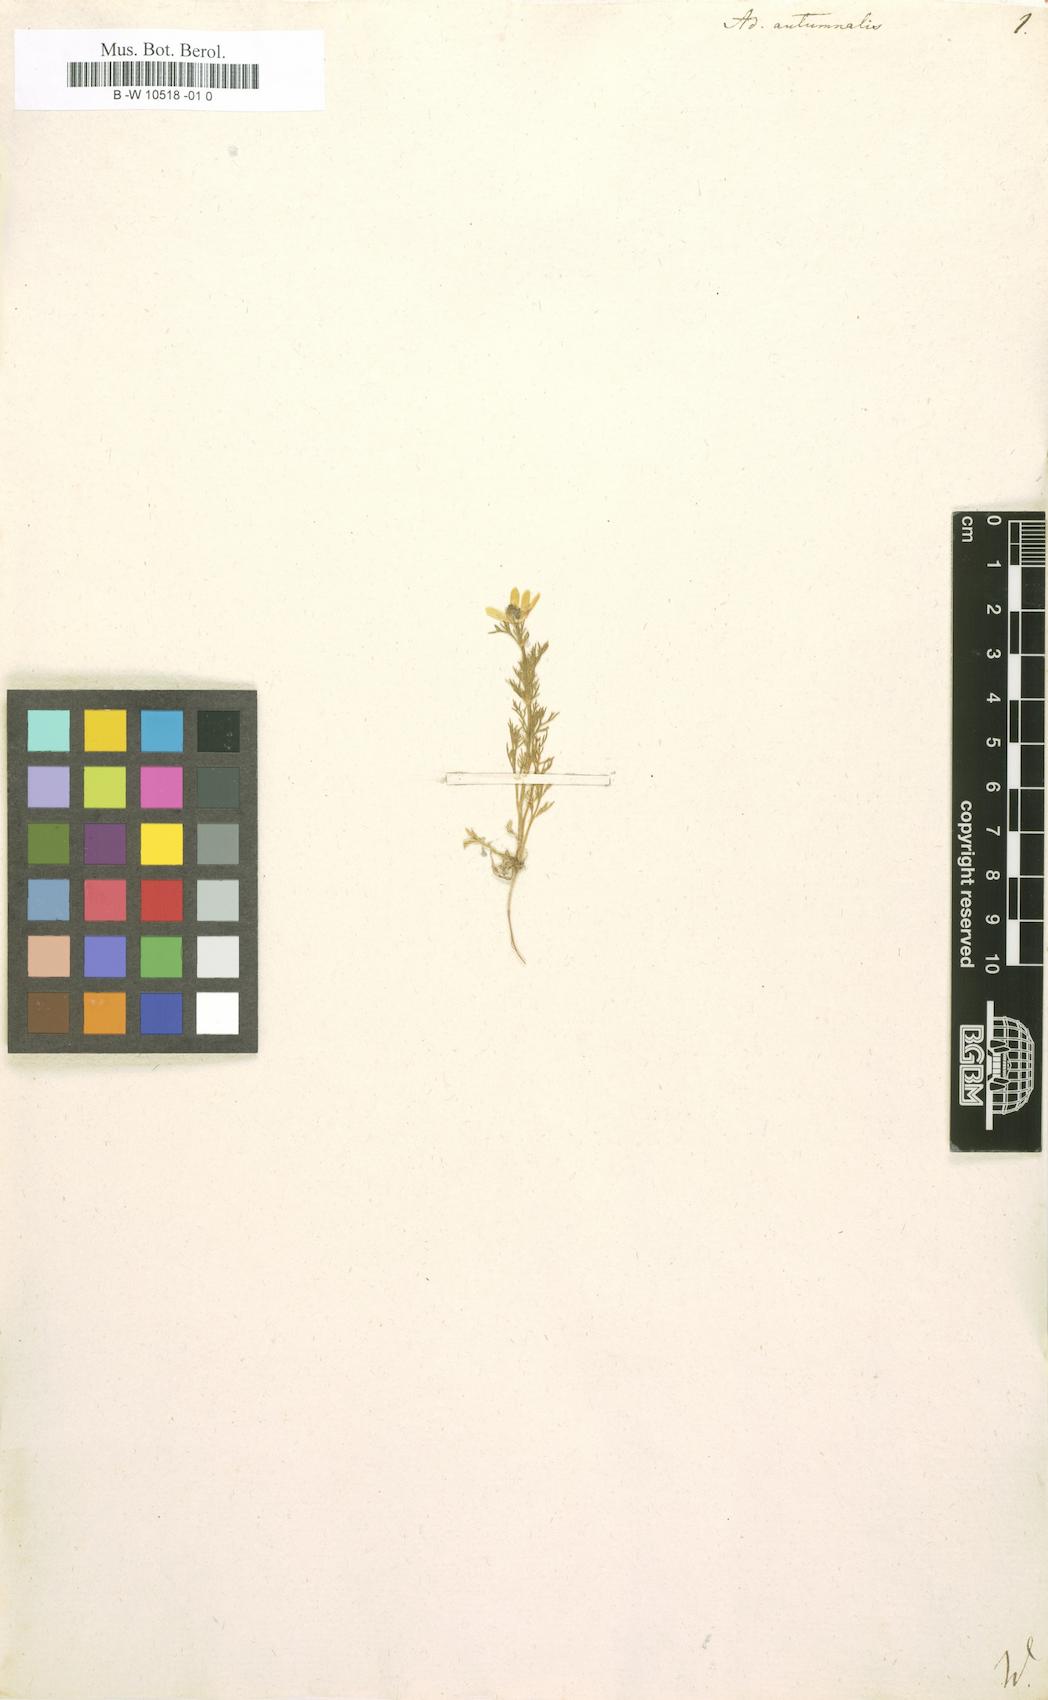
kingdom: Plantae
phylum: Tracheophyta
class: Magnoliopsida
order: Ranunculales
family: Ranunculaceae
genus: Adonis
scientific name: Adonis annua
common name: Pheasant's-eye
